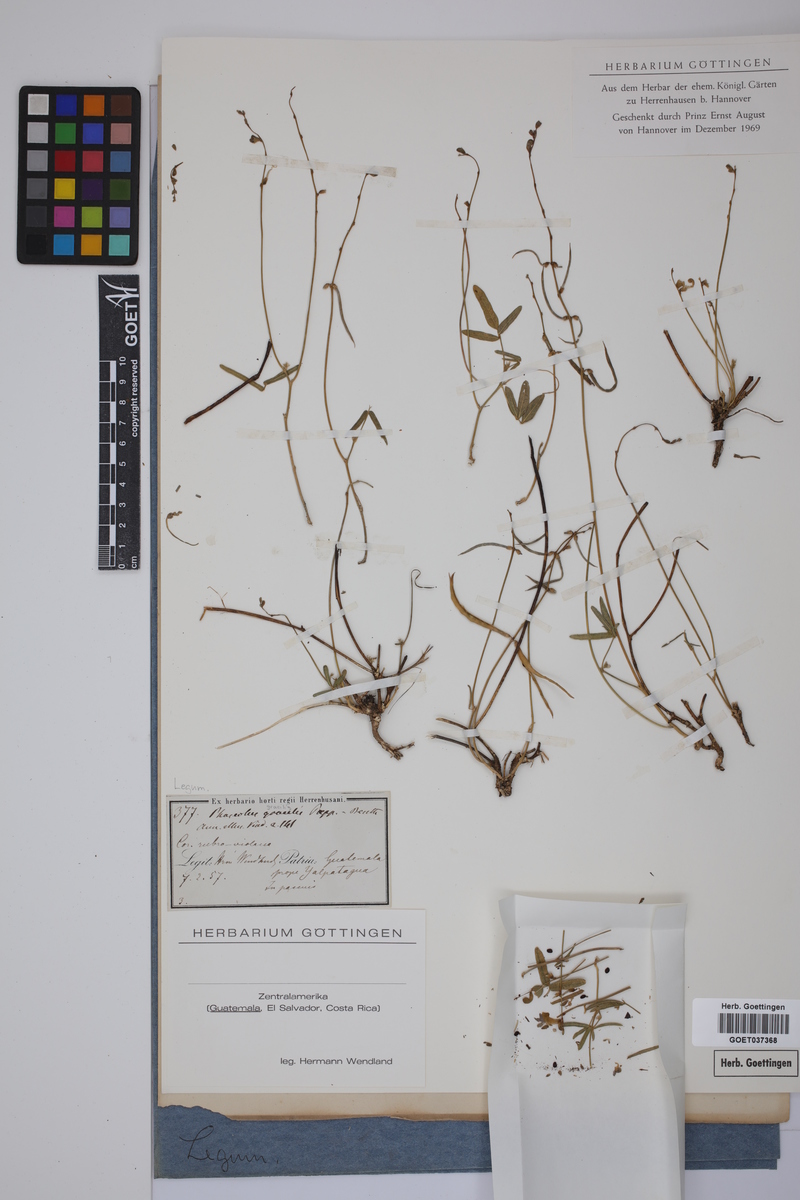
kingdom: Plantae
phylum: Tracheophyta
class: Magnoliopsida
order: Fabales
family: Fabaceae
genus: Macroptilium
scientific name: Macroptilium gracile
